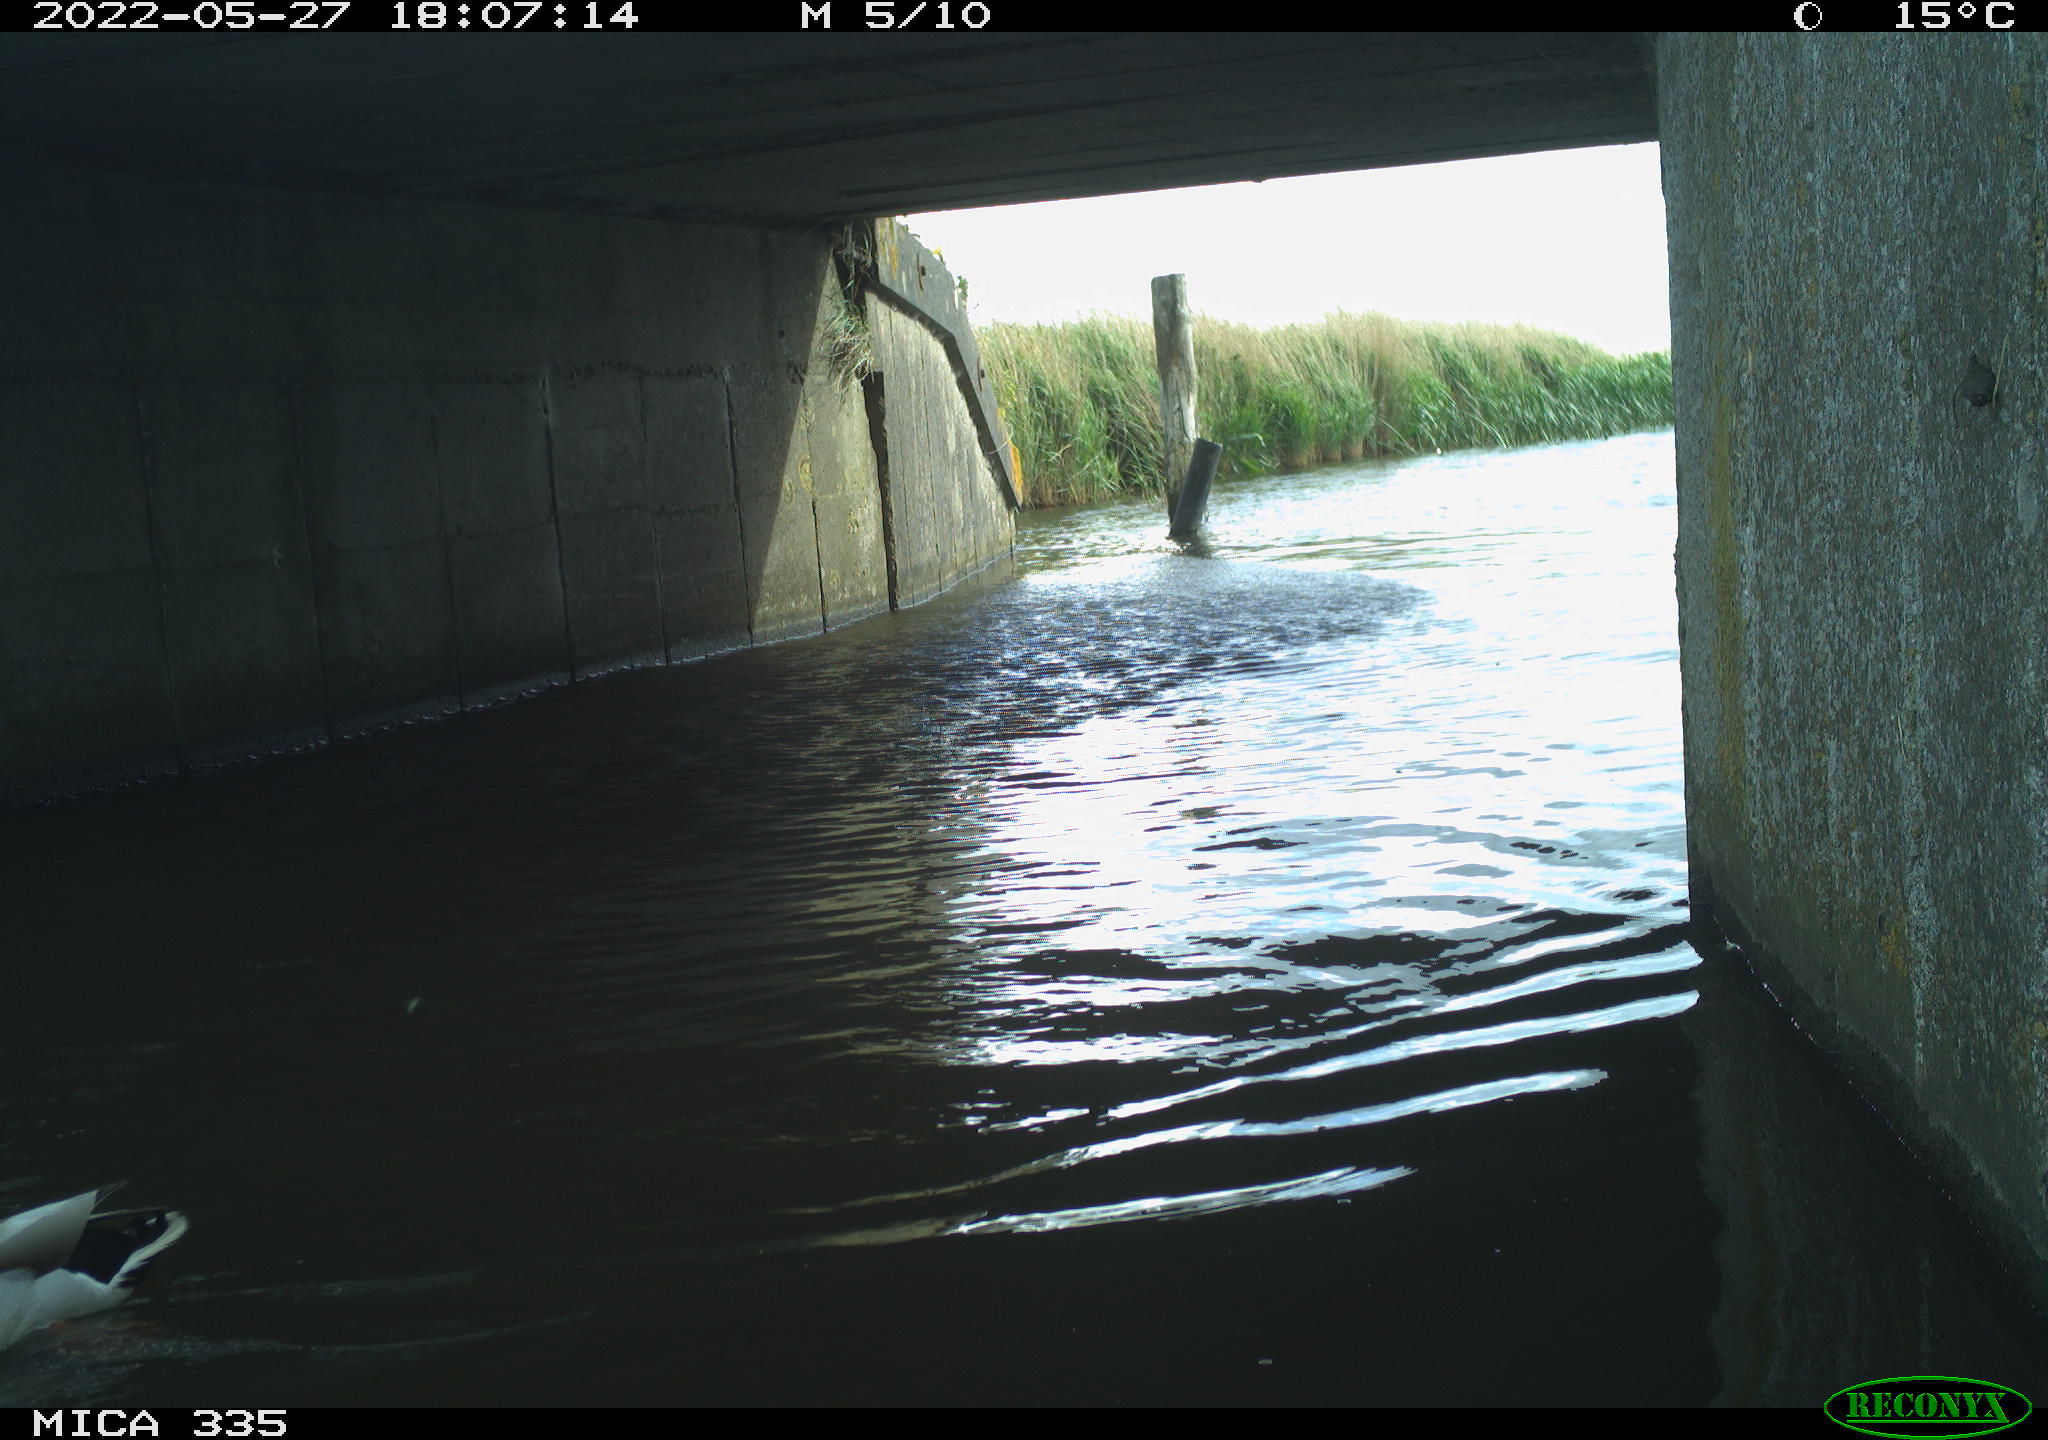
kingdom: Animalia
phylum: Chordata
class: Aves
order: Anseriformes
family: Anatidae
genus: Anas
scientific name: Anas platyrhynchos
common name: Mallard
